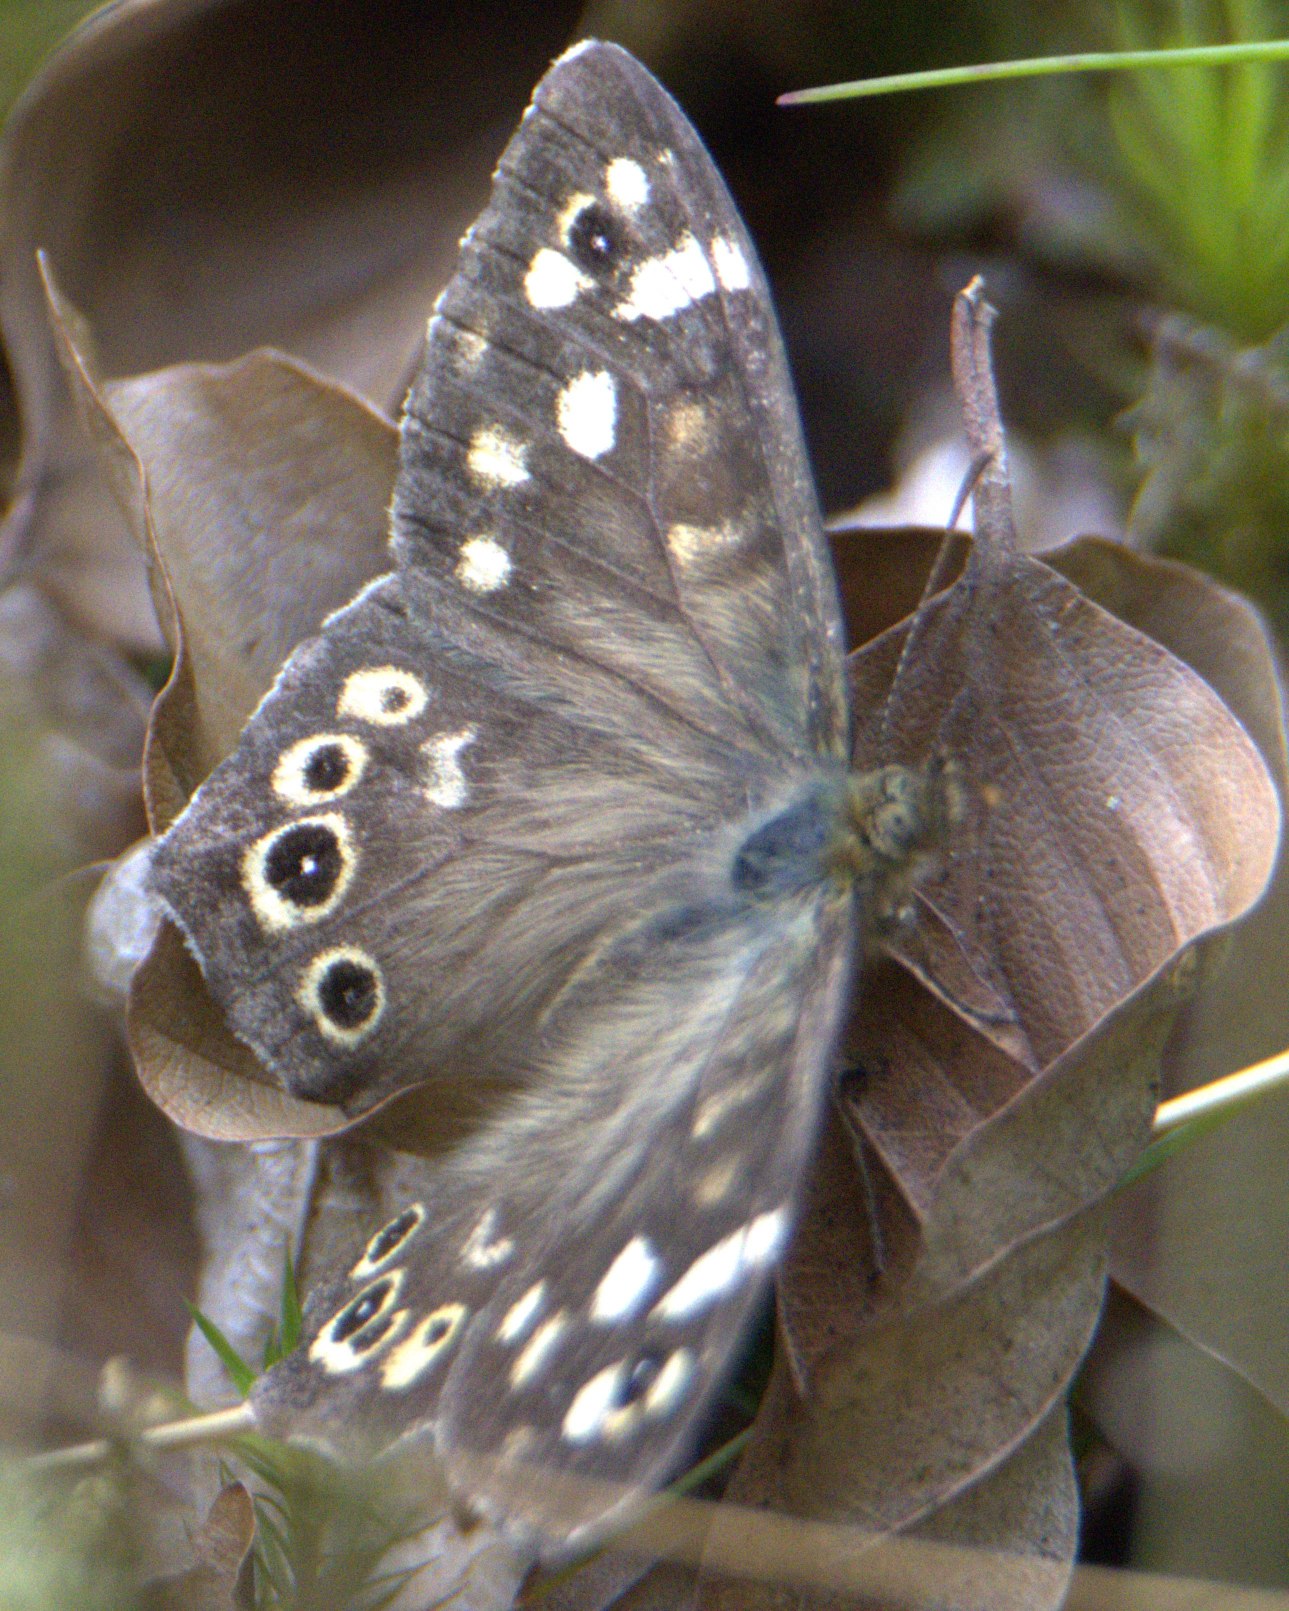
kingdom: Animalia
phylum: Arthropoda
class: Insecta
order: Lepidoptera
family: Nymphalidae
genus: Pararge
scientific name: Pararge aegeria
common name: Skovrandøje
